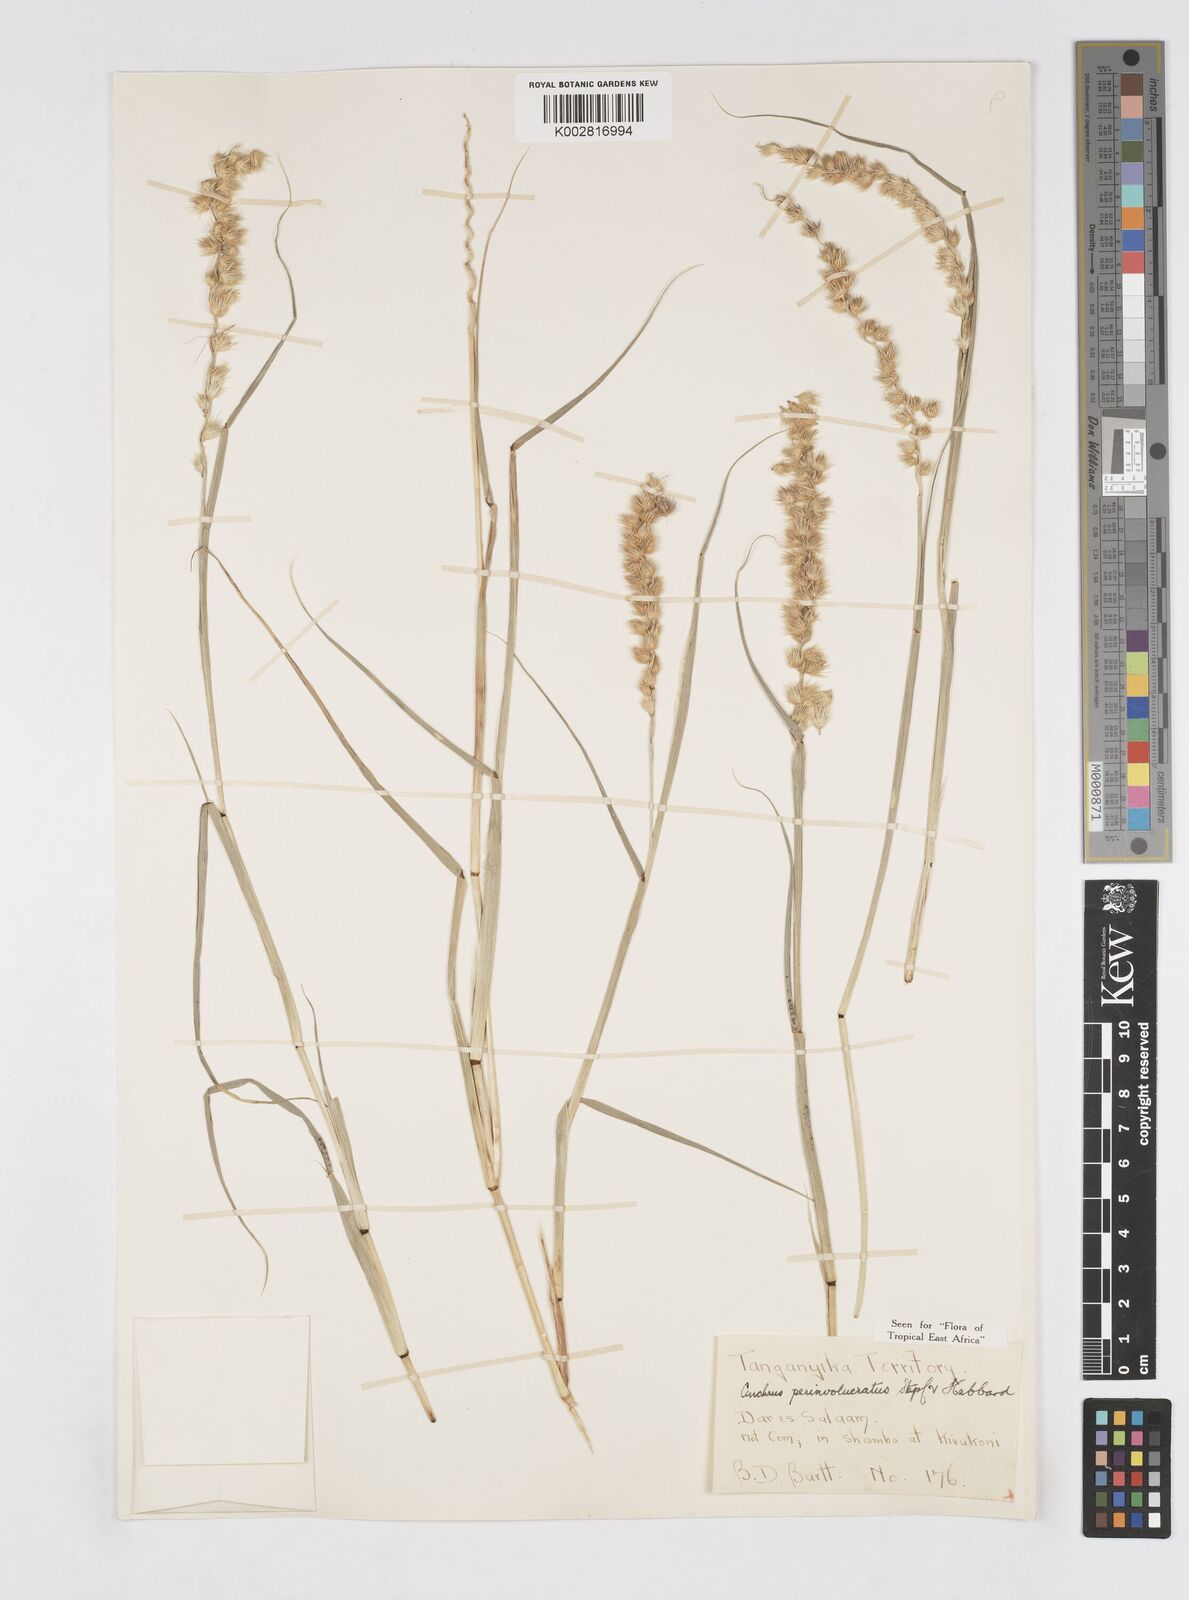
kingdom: Plantae
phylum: Tracheophyta
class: Liliopsida
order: Poales
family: Poaceae
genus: Cenchrus
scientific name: Cenchrus biflorus
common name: Indian sandbur
